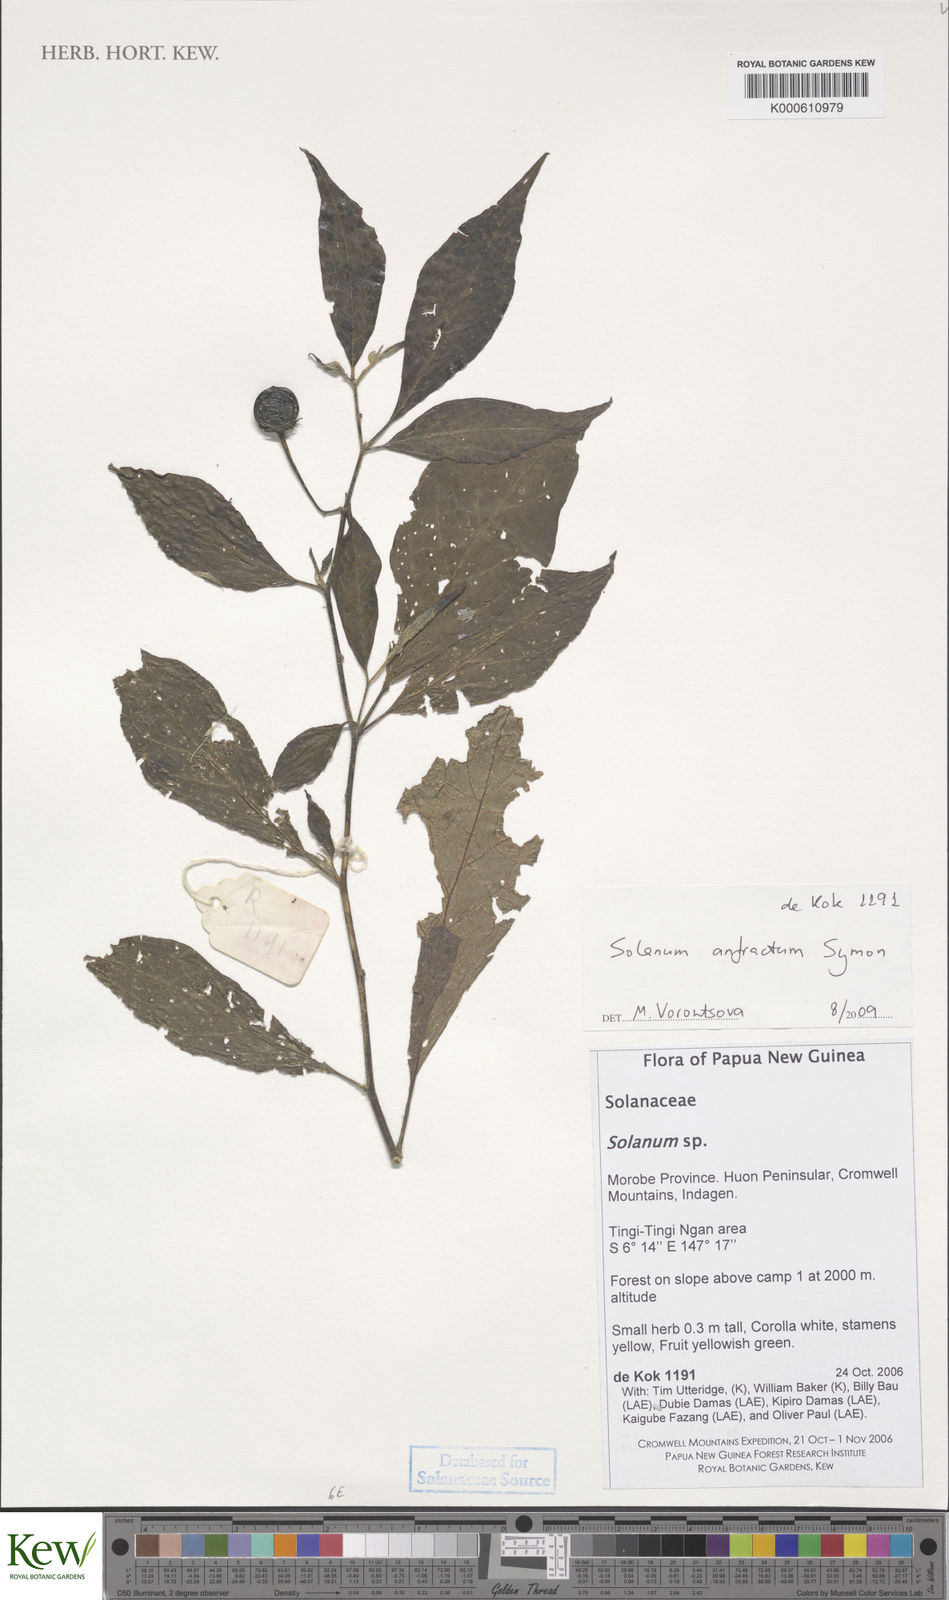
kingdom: Plantae
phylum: Tracheophyta
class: Magnoliopsida
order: Solanales
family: Solanaceae
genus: Solanum
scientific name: Solanum anfractum
